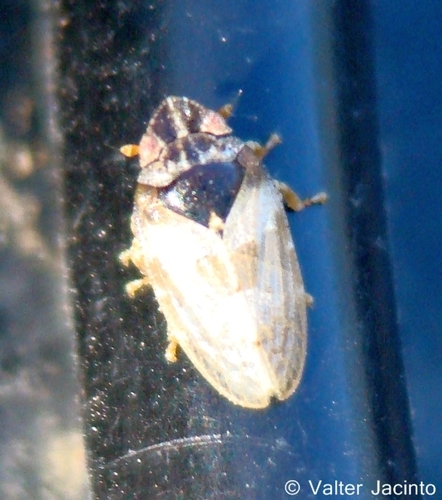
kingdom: Animalia
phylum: Arthropoda
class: Insecta
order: Hemiptera
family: Tettigometridae
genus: Tettigometra
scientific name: Tettigometra
